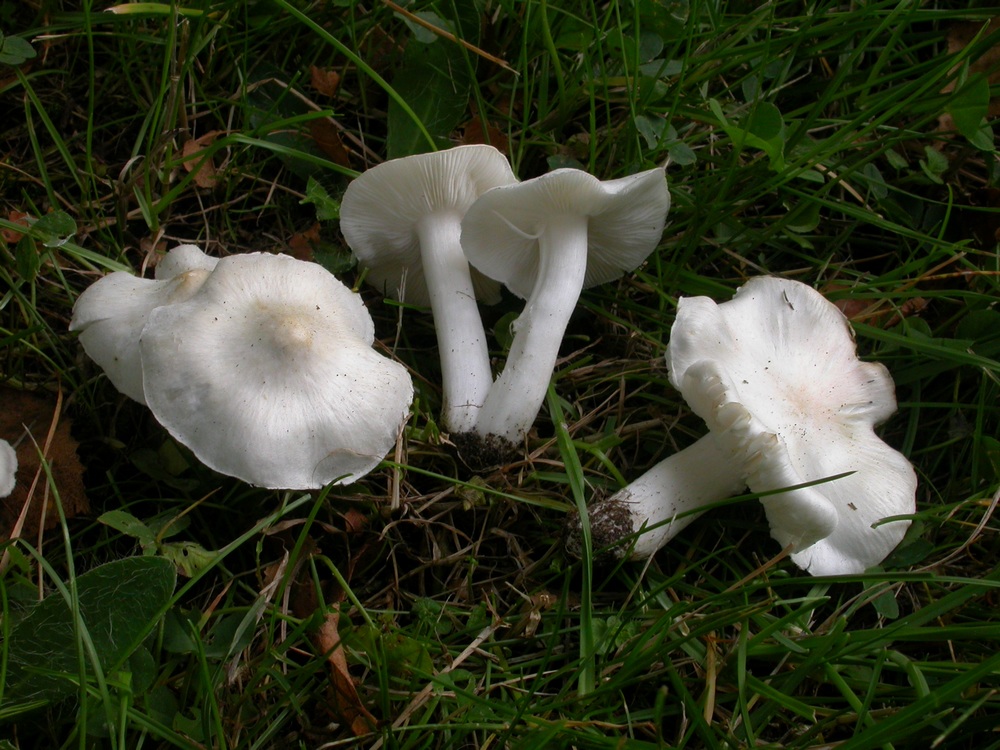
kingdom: Fungi
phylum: Basidiomycota
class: Agaricomycetes
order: Agaricales
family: Tricholomataceae
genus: Tricholoma
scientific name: Tricholoma argyraceum
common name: spids ridderhat
